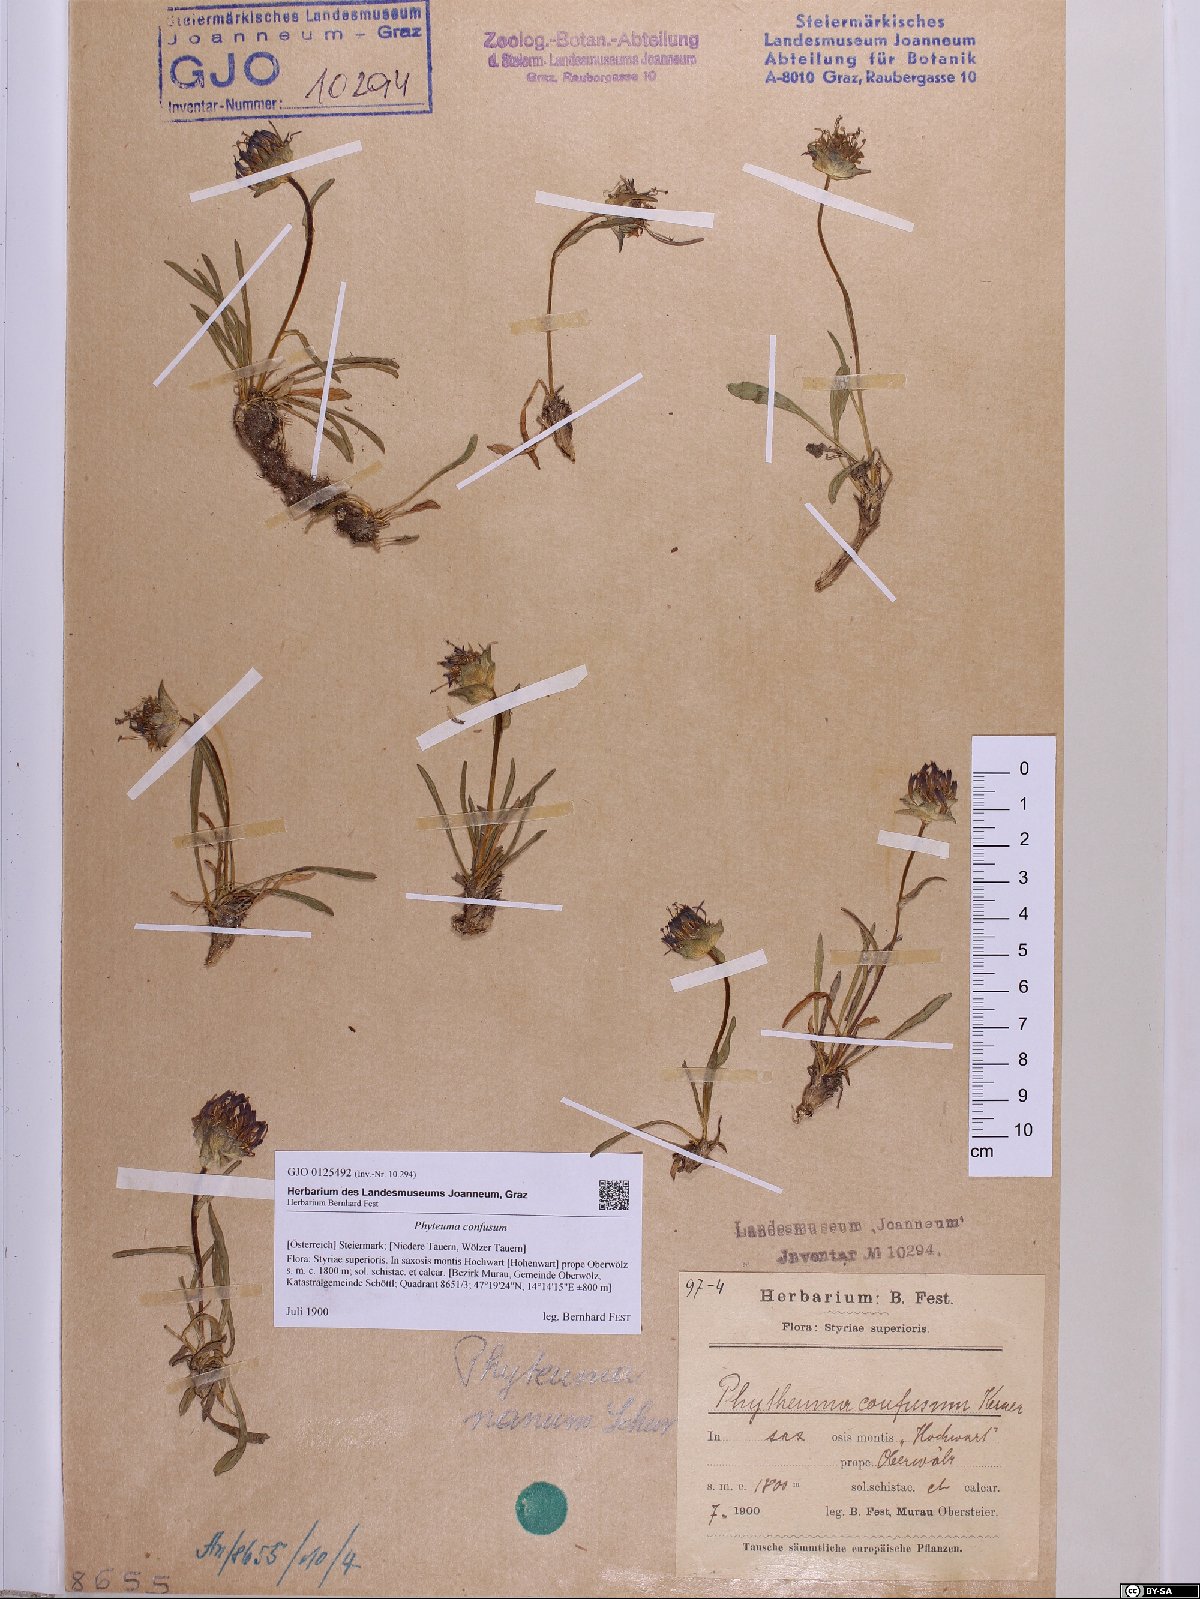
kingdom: Plantae
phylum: Tracheophyta
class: Magnoliopsida
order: Asterales
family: Campanulaceae
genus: Phyteuma
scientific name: Phyteuma confusum
